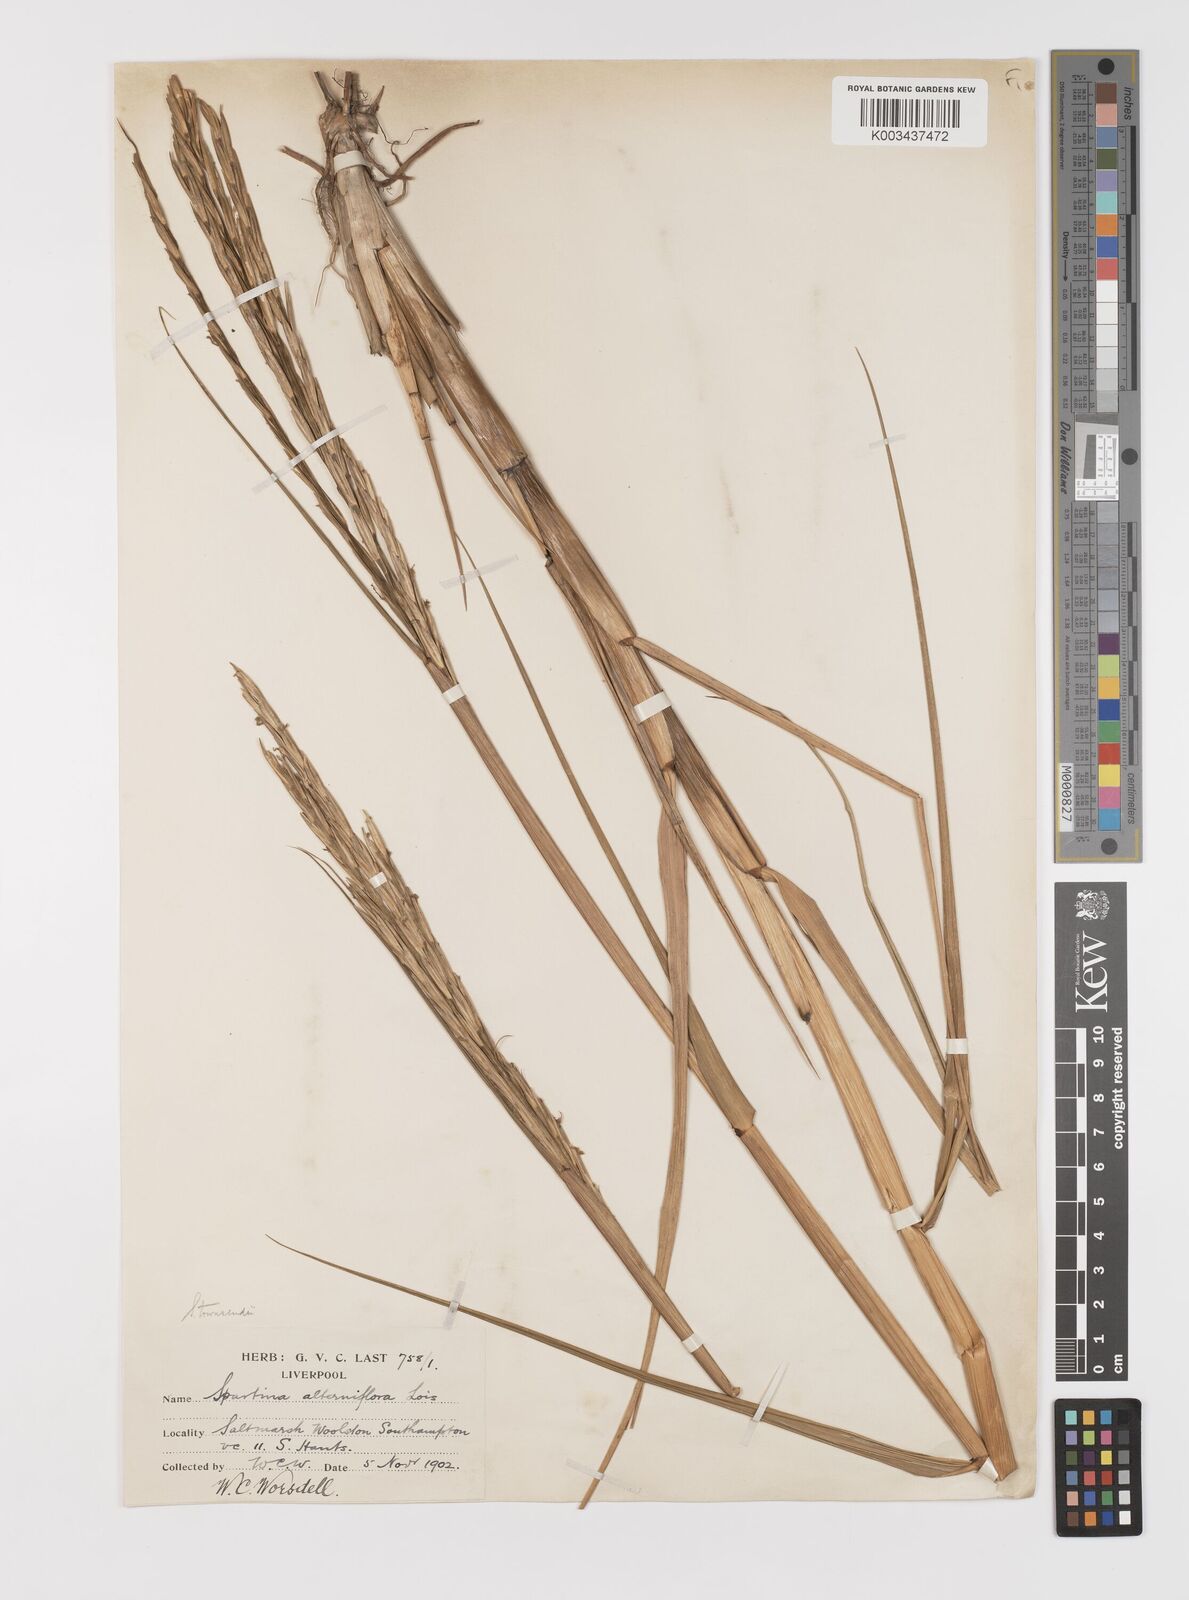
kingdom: Plantae
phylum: Tracheophyta
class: Liliopsida
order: Poales
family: Poaceae
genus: Sporobolus
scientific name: Sporobolus anglicus
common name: English cordgrass
